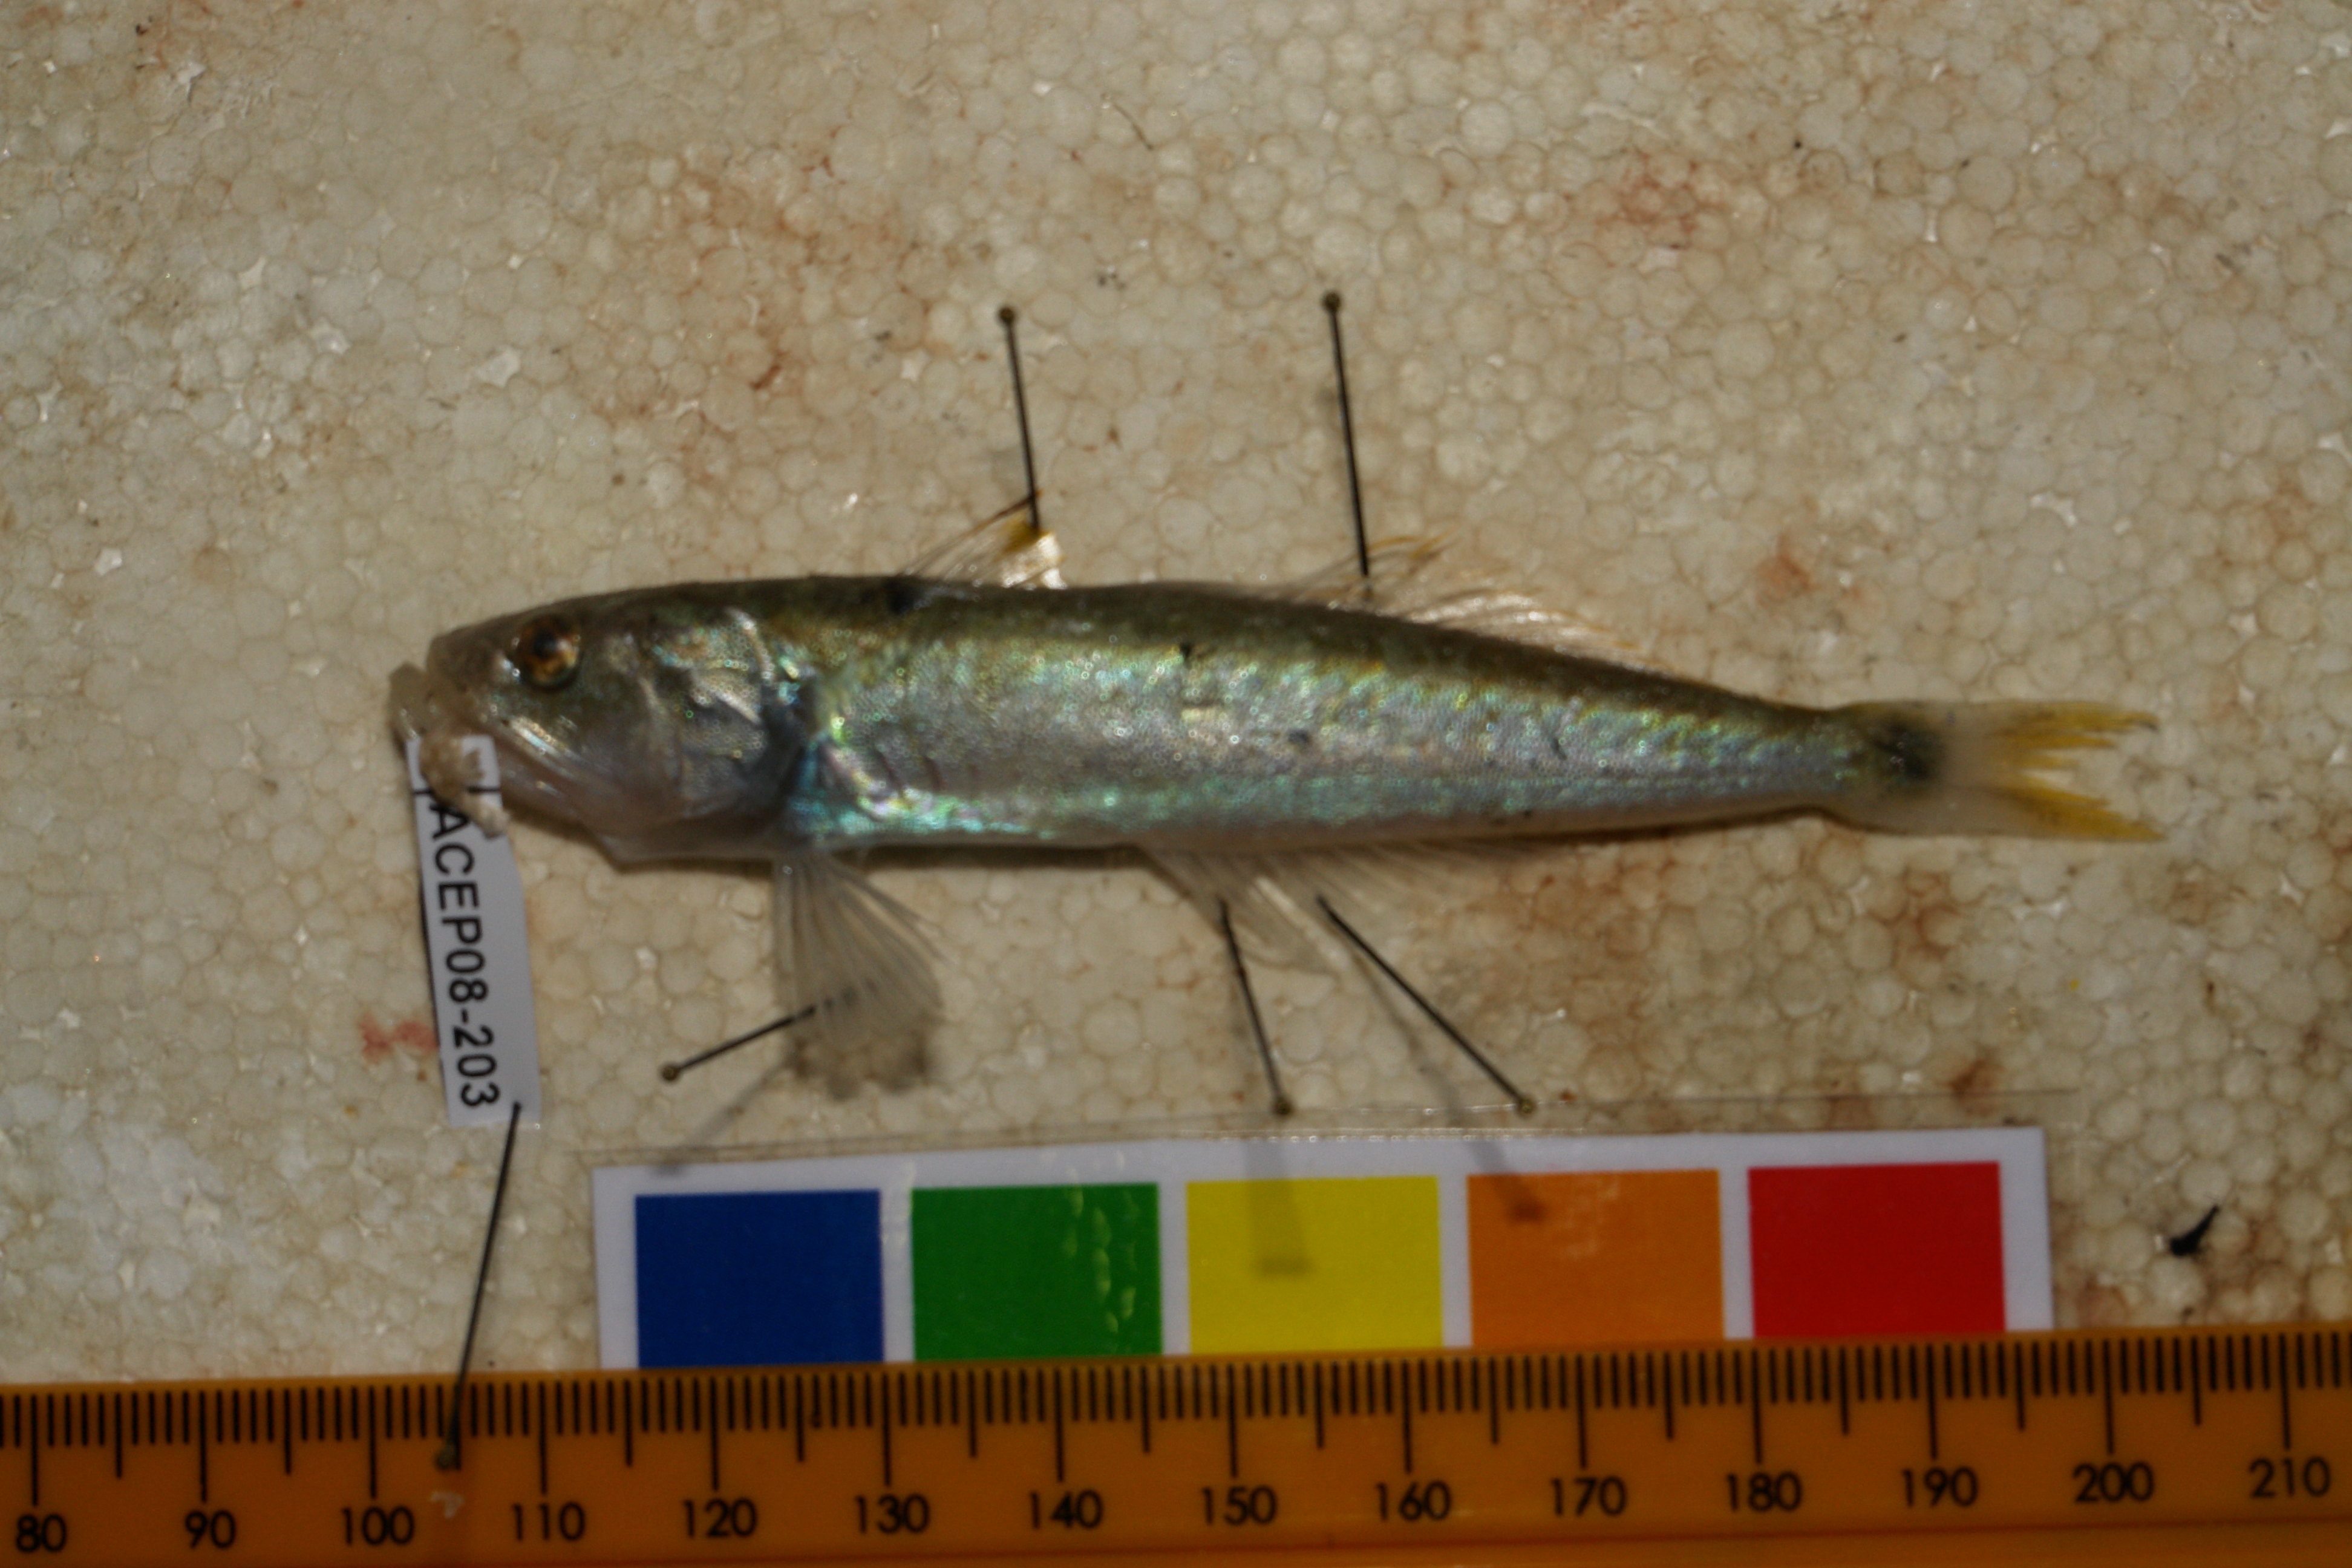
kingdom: Animalia
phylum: Chordata
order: Perciformes
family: Champsodontidae
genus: Champsodon
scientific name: Champsodon sechellensis
